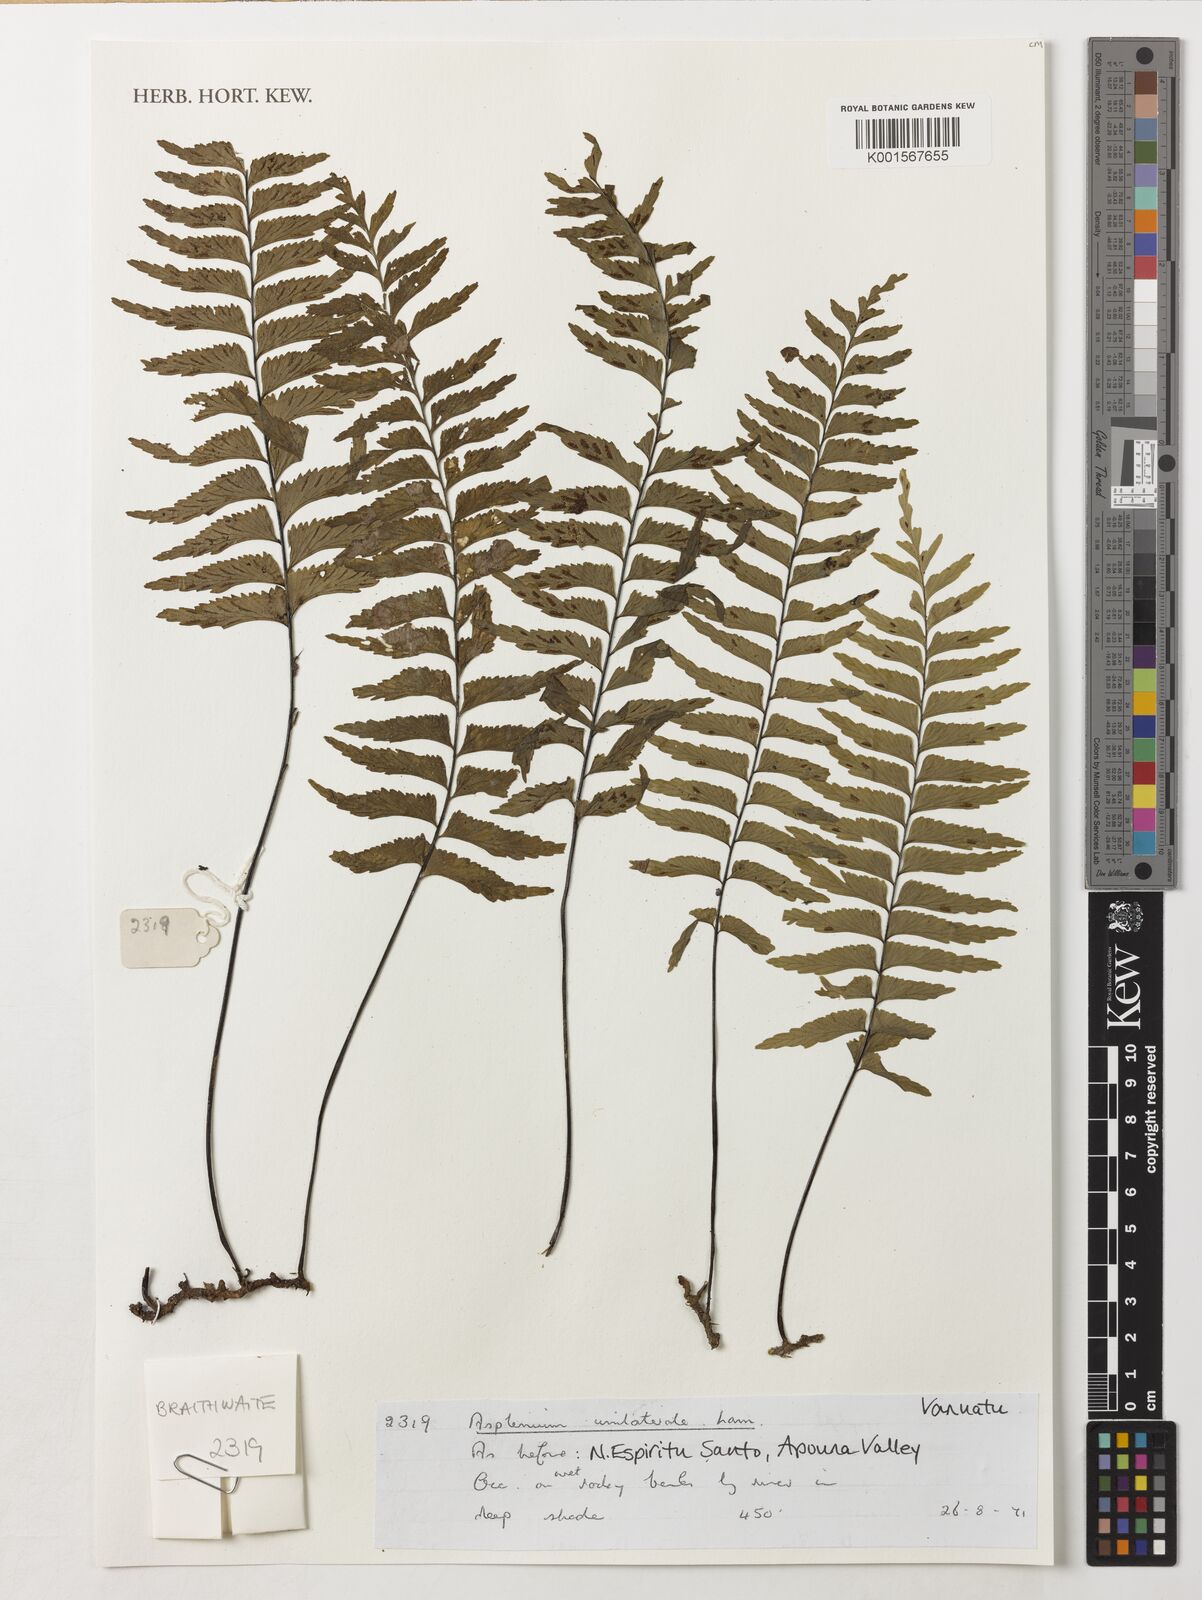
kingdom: Plantae
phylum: Tracheophyta
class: Polypodiopsida
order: Polypodiales
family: Aspleniaceae
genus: Hymenasplenium
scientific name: Hymenasplenium unilaterale
